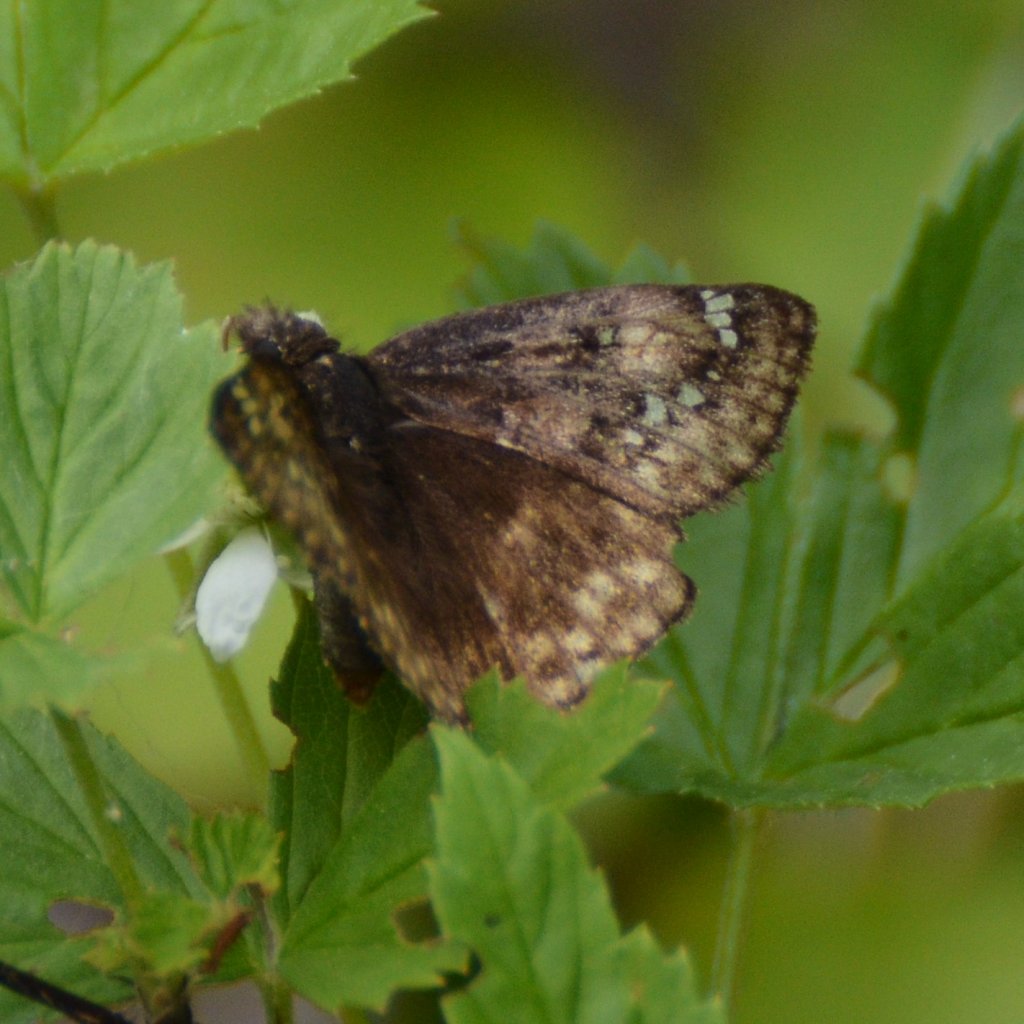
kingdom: Animalia
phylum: Arthropoda
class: Insecta
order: Lepidoptera
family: Hesperiidae
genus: Gesta
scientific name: Gesta
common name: Juvenal's Duskywing
